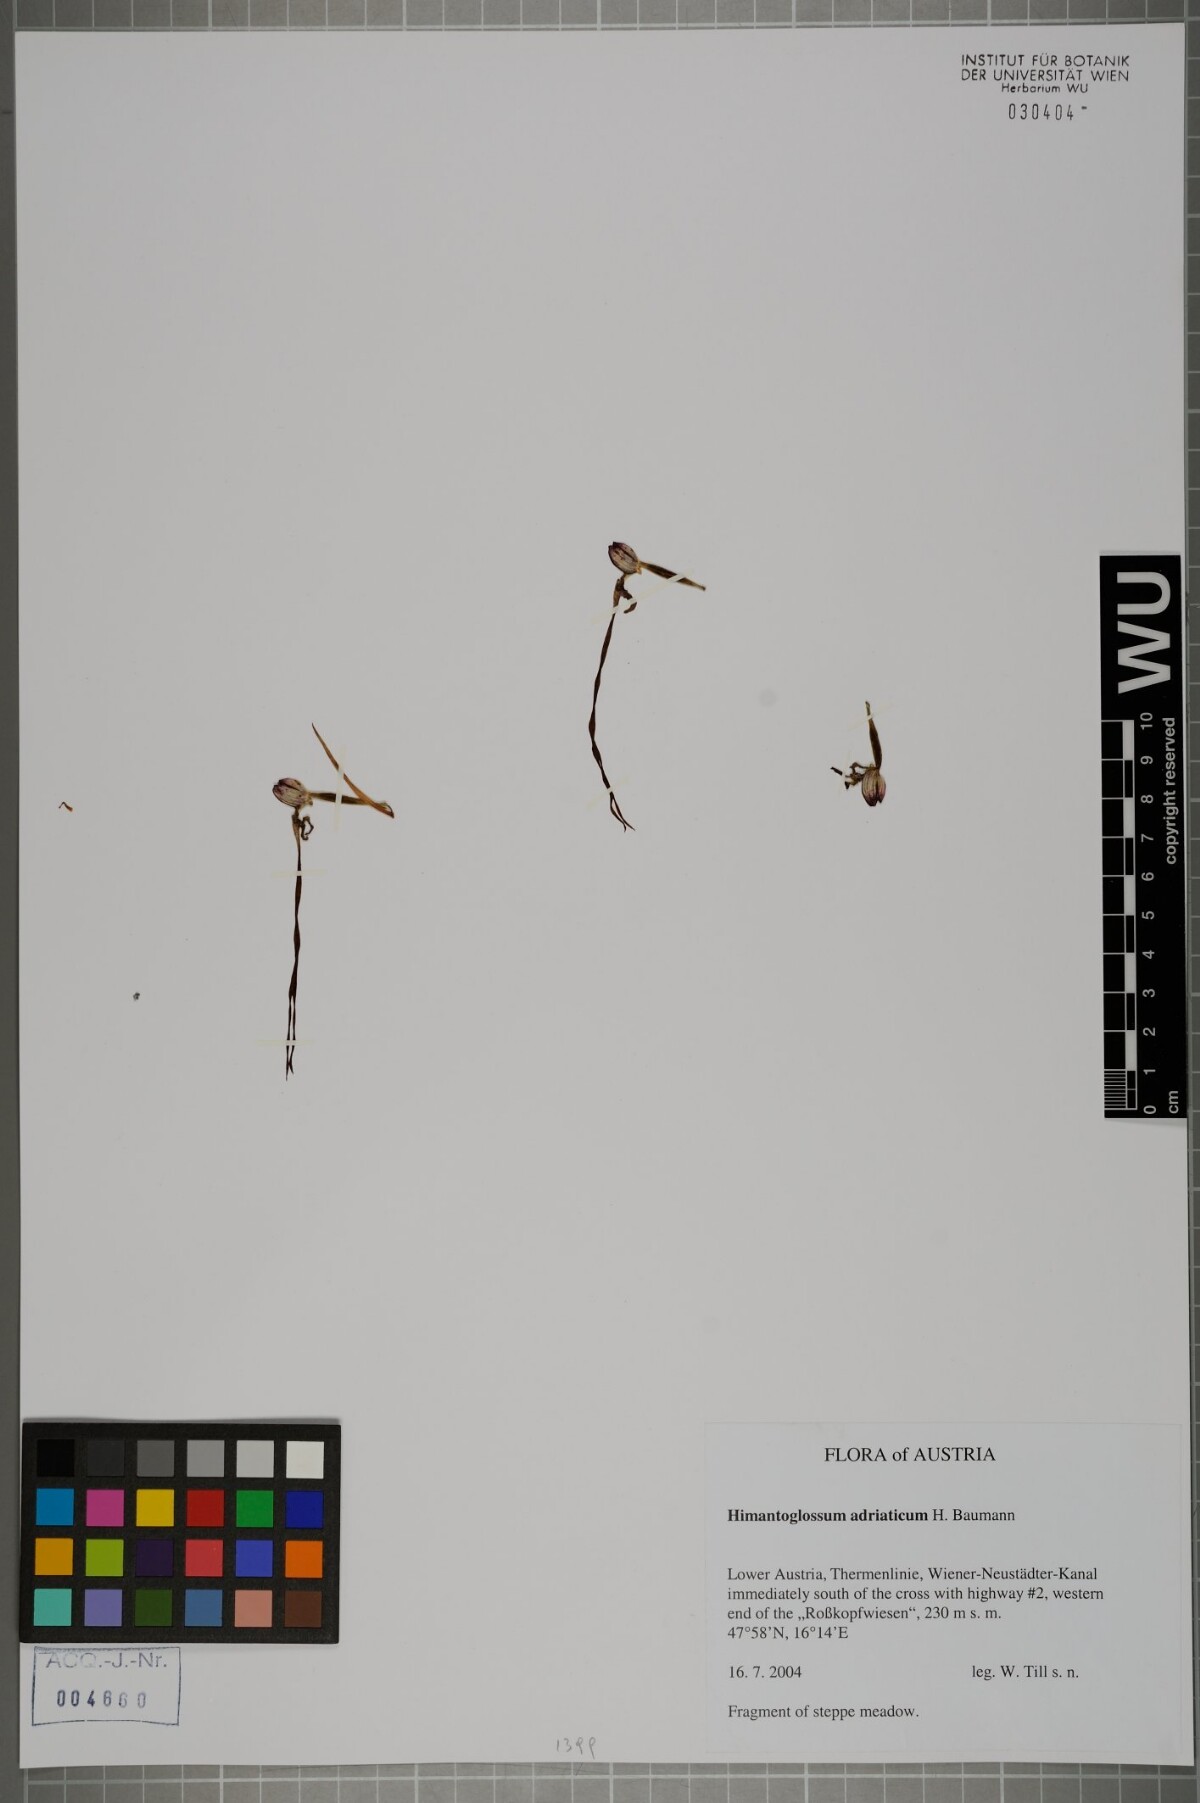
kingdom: Plantae
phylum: Tracheophyta
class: Liliopsida
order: Asparagales
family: Orchidaceae
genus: Himantoglossum
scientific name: Himantoglossum adriaticum
